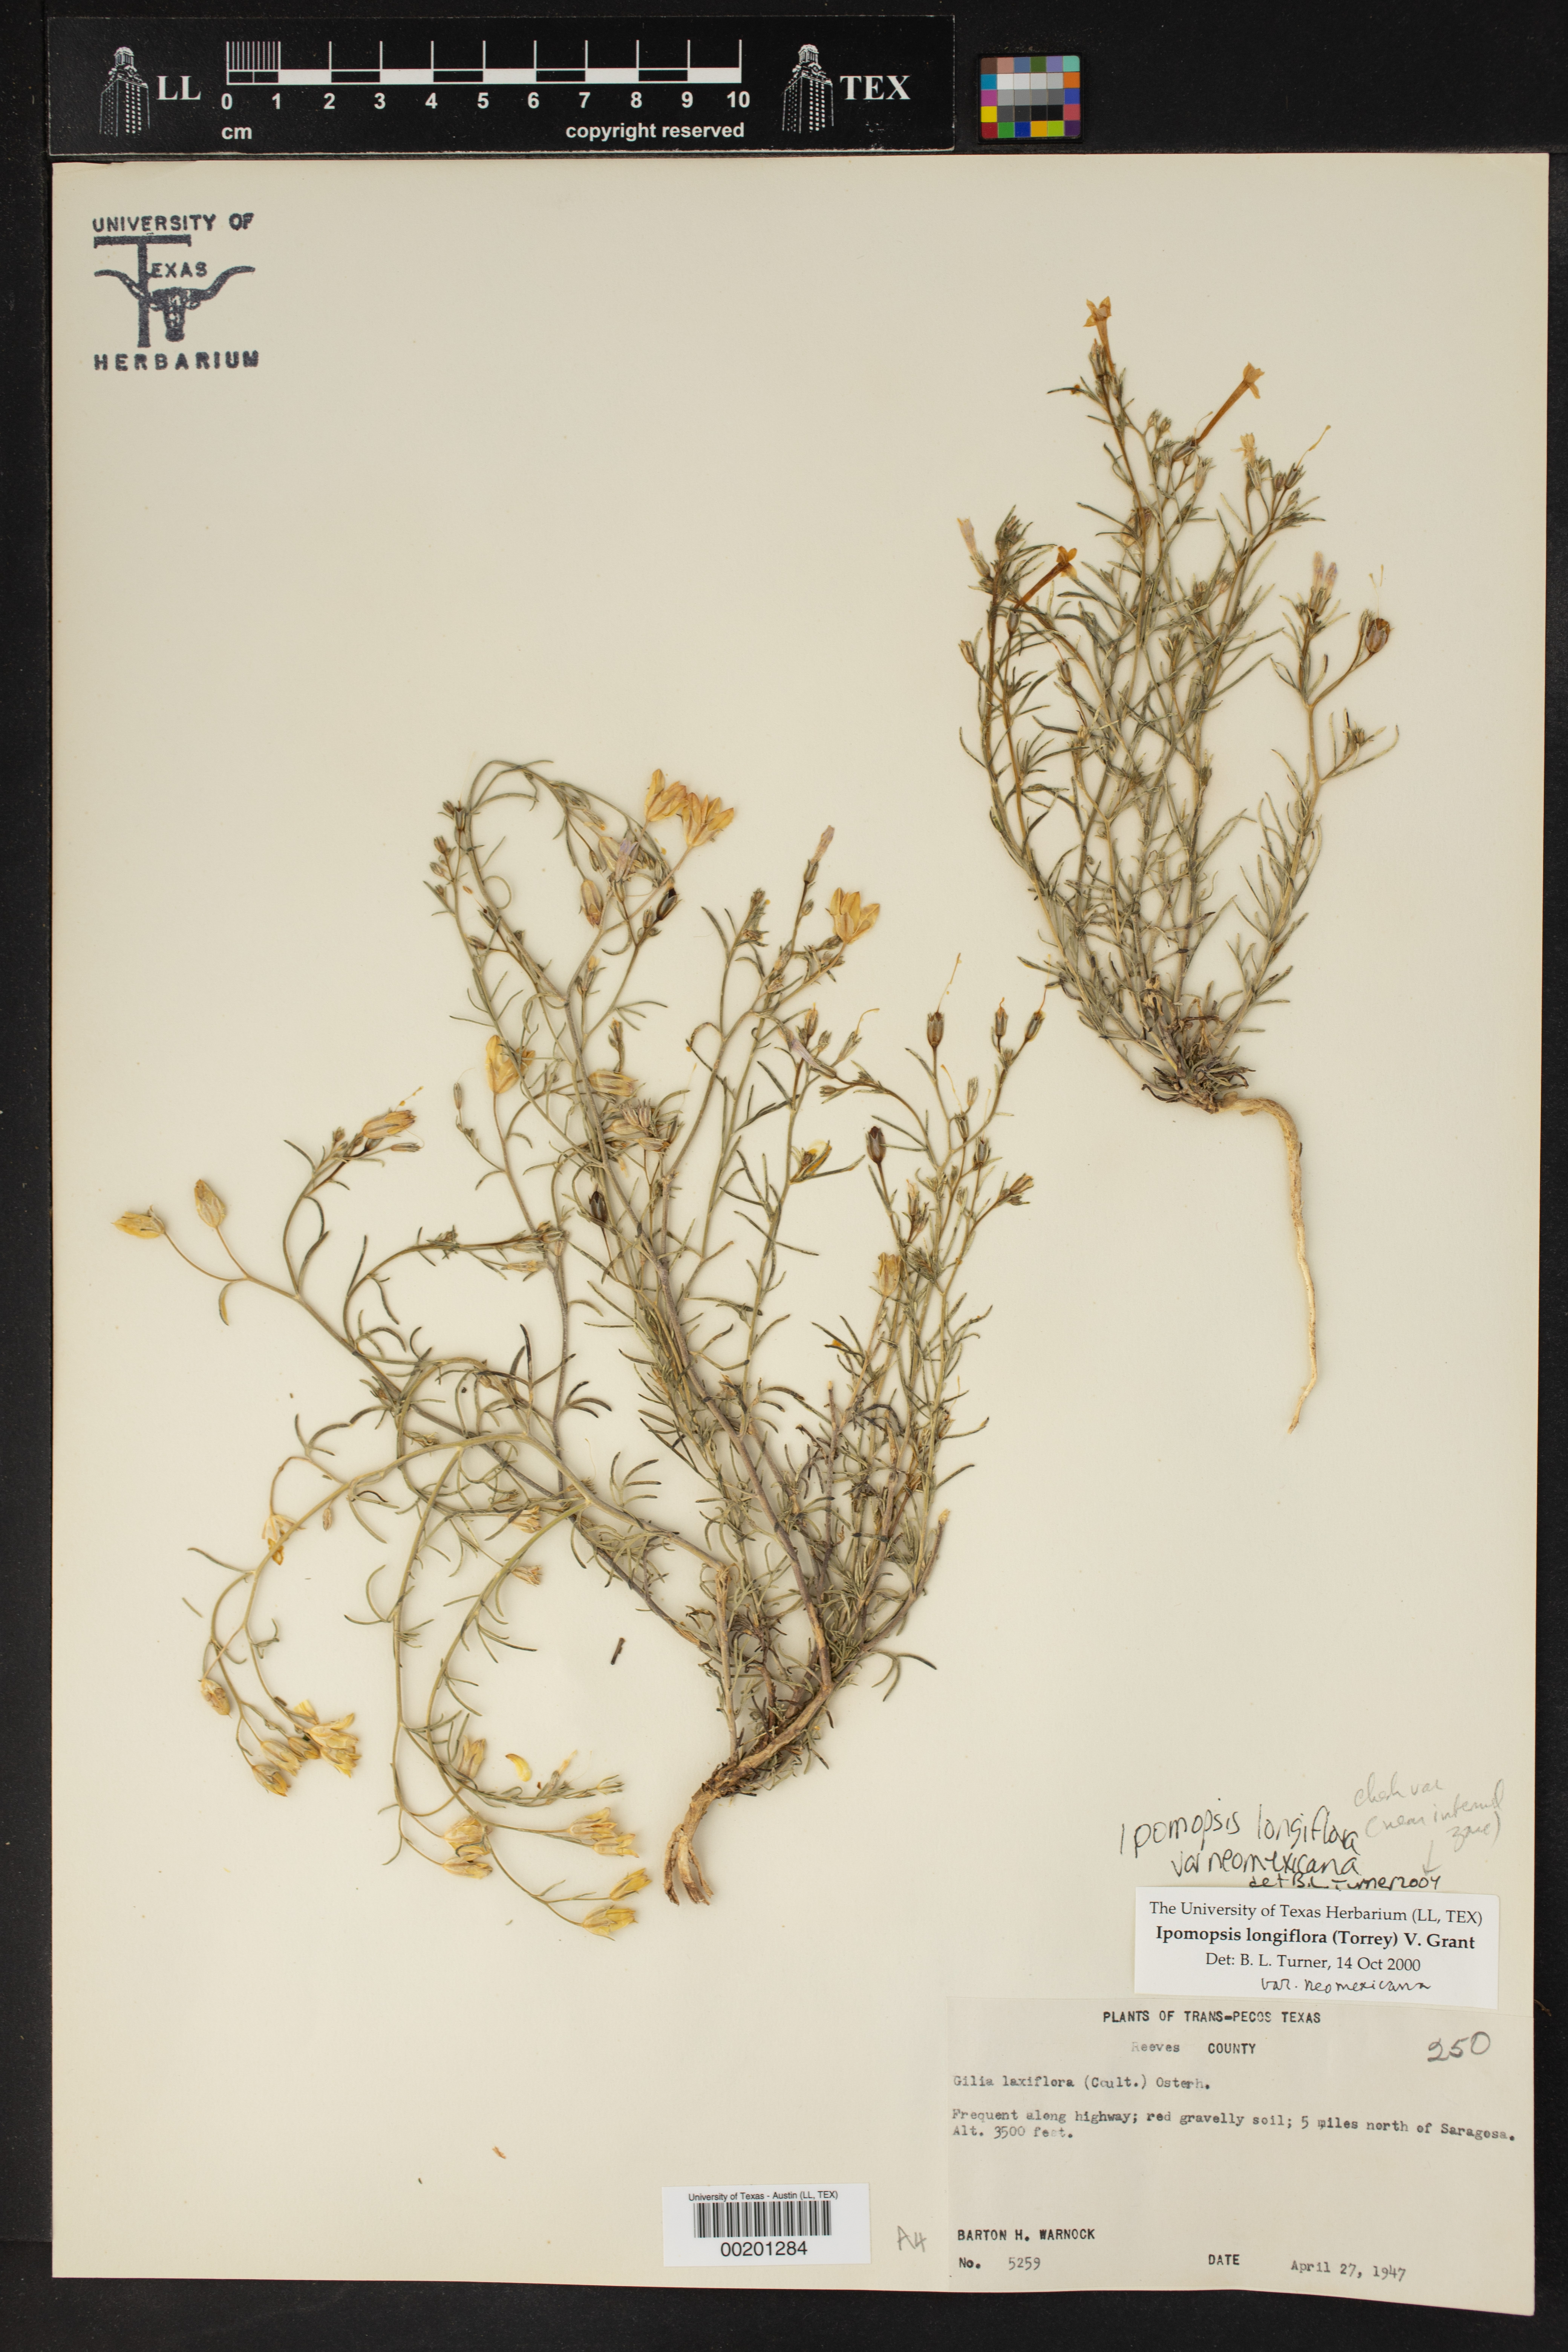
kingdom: Plantae
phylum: Tracheophyta
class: Magnoliopsida
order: Ericales
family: Polemoniaceae
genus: Ipomopsis
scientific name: Ipomopsis longiflora
